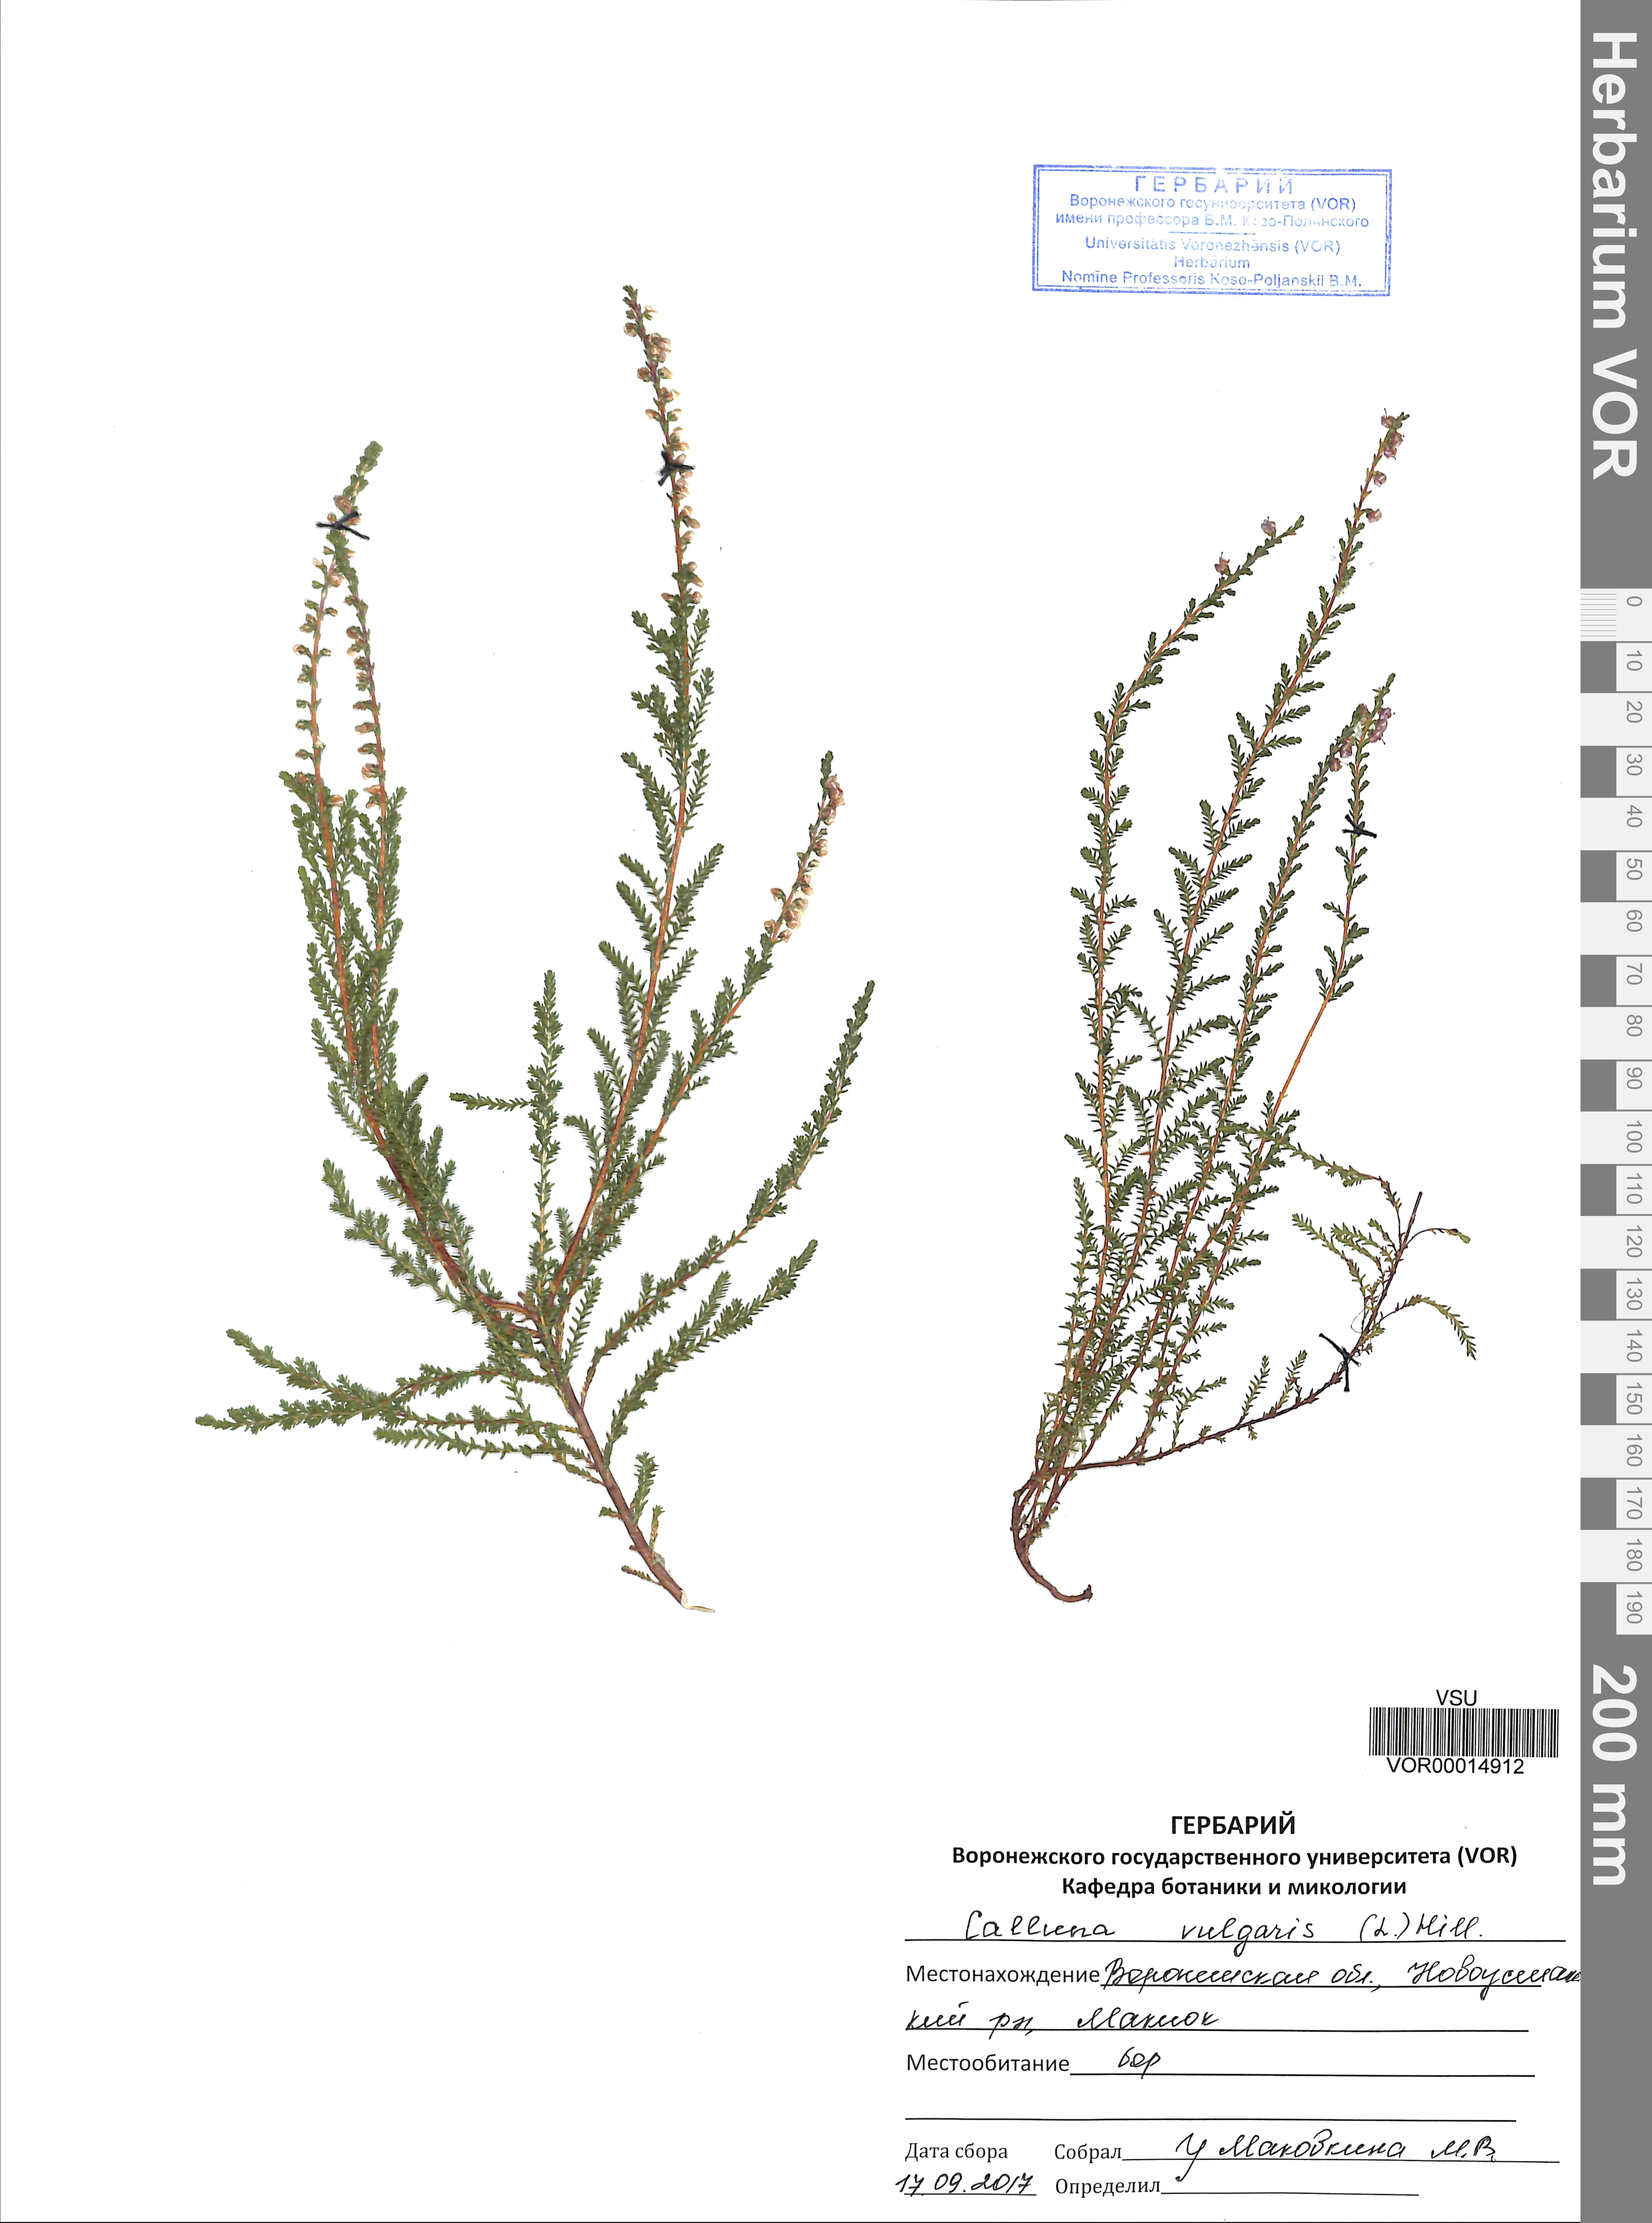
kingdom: Plantae
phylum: Tracheophyta
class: Magnoliopsida
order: Ericales
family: Ericaceae
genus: Calluna
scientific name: Calluna vulgaris
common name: Heather
